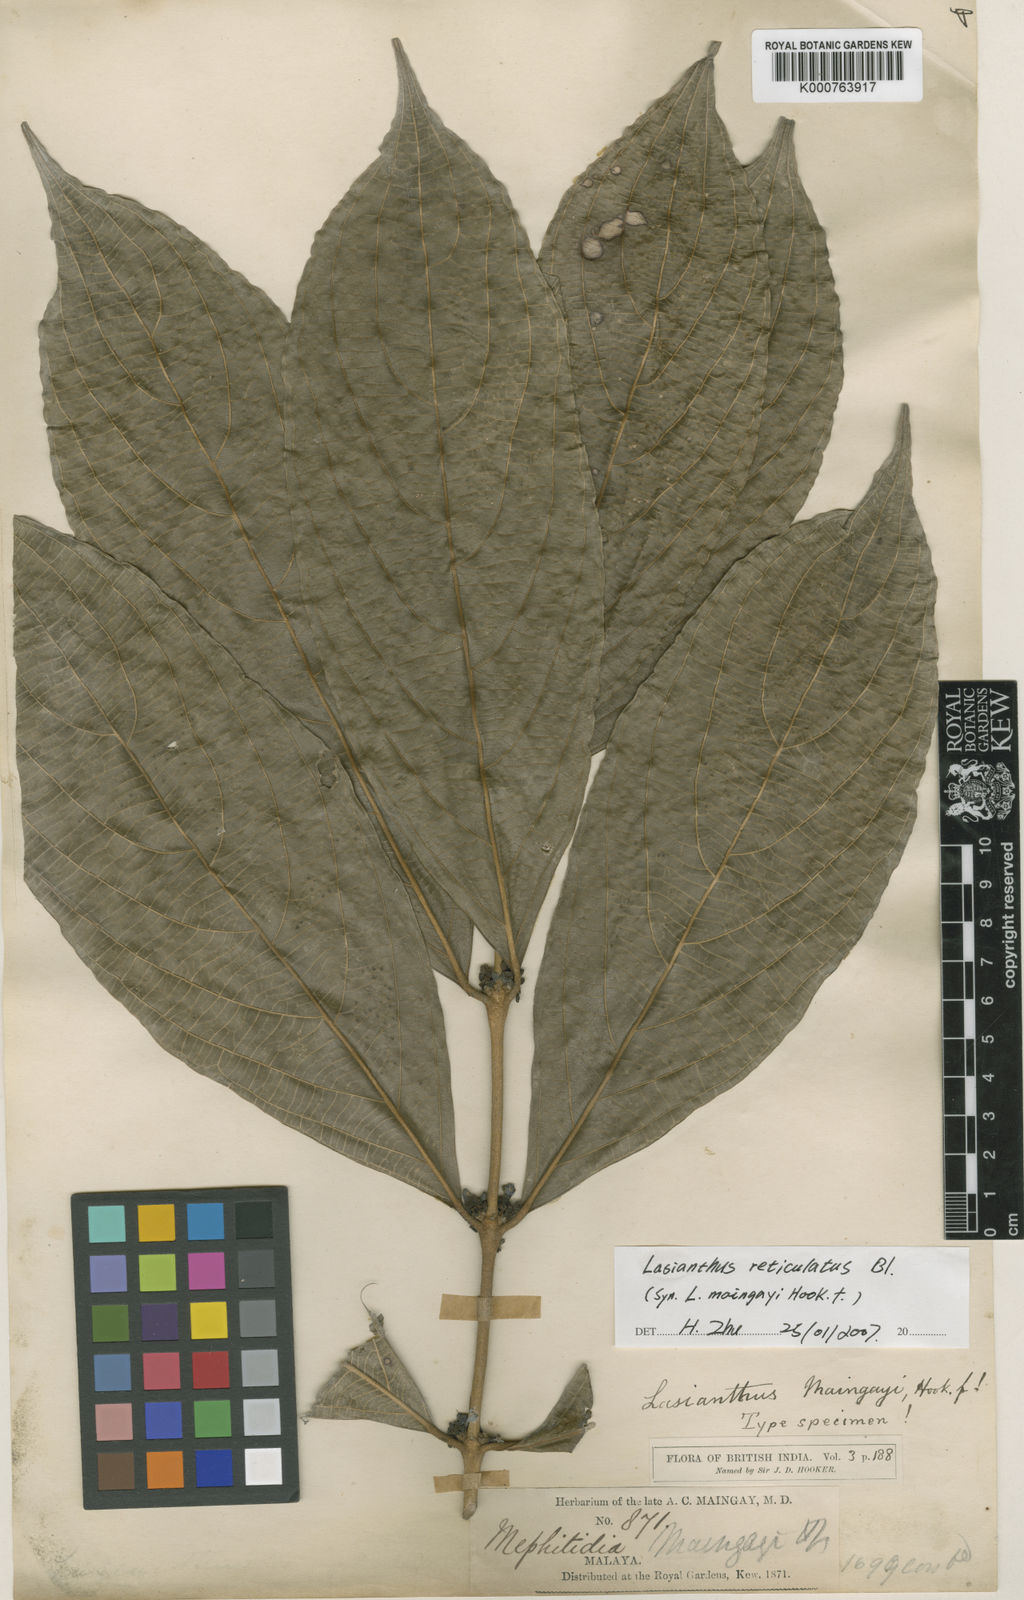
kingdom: Plantae
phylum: Tracheophyta
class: Magnoliopsida
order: Gentianales
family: Rubiaceae
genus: Lasianthus
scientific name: Lasianthus verticillatus
